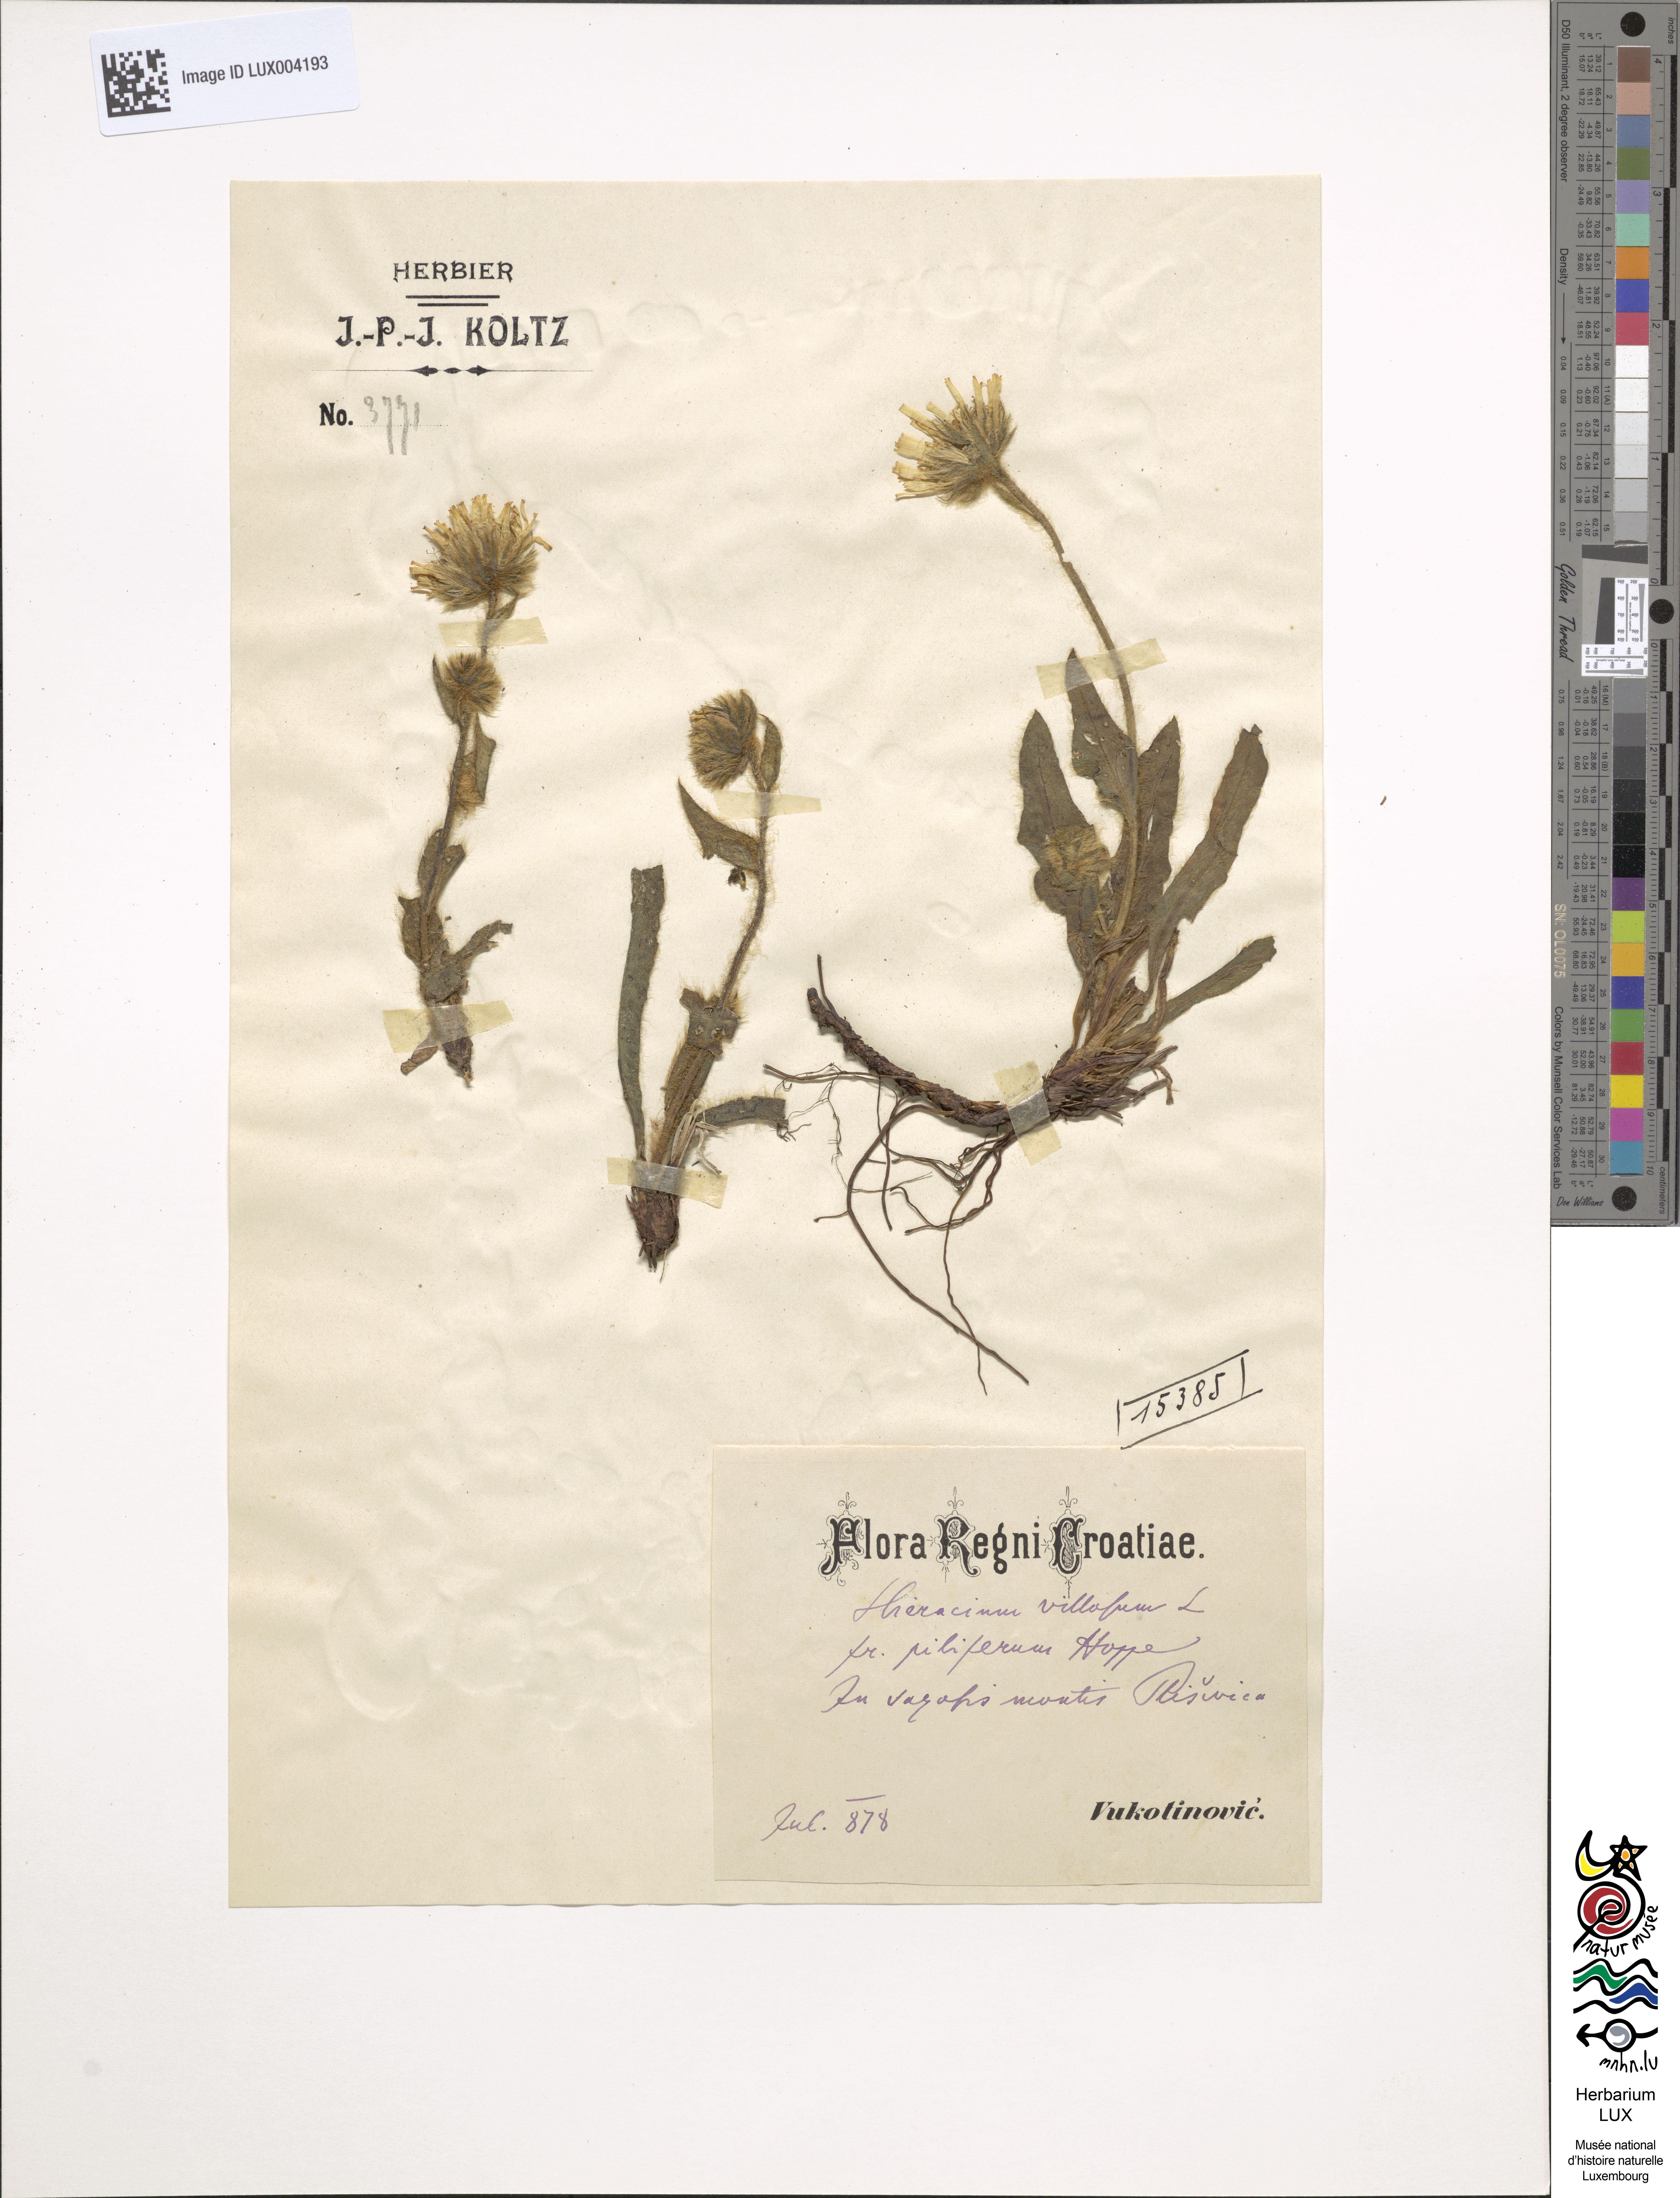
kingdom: Plantae
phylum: Tracheophyta
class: Magnoliopsida
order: Asterales
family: Asteraceae
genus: Hieracium
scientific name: Hieracium villosum
